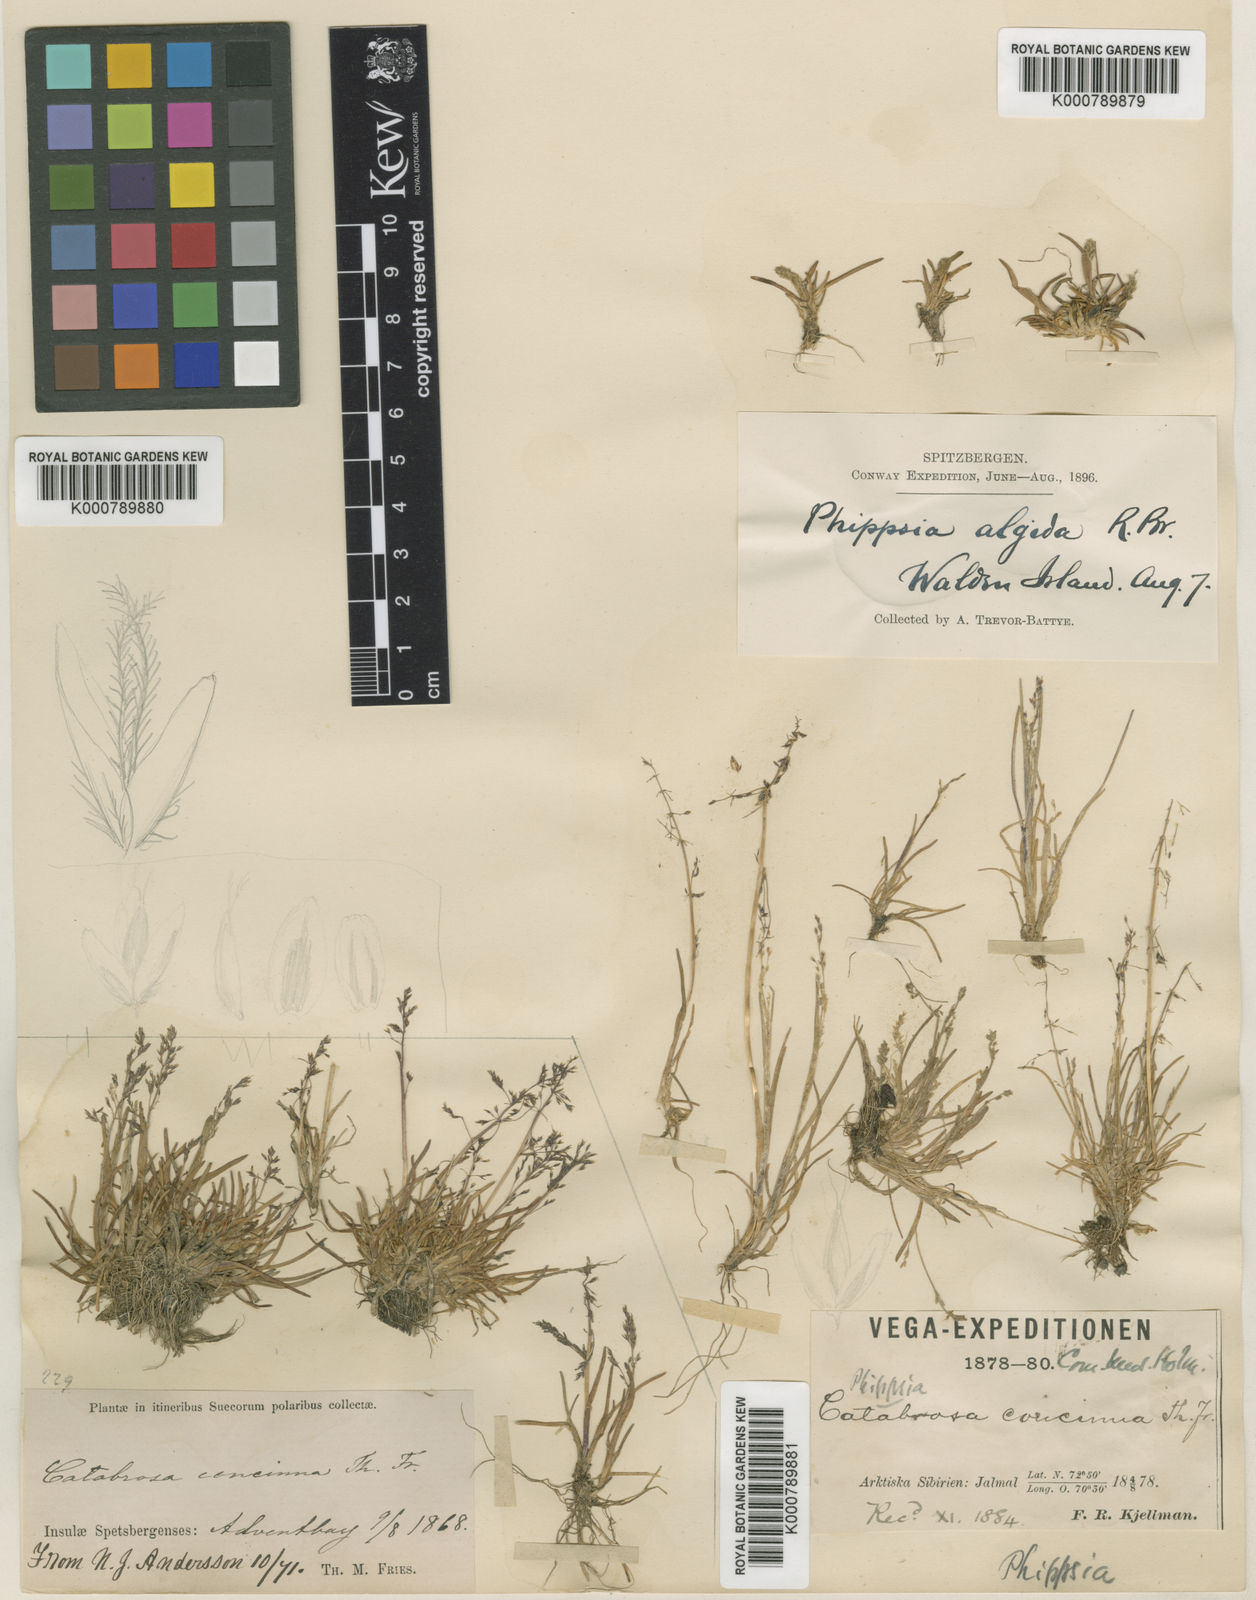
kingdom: Plantae
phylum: Tracheophyta
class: Liliopsida
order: Poales
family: Poaceae
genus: Phippsia
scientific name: Phippsia concinna
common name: Snowgrass
